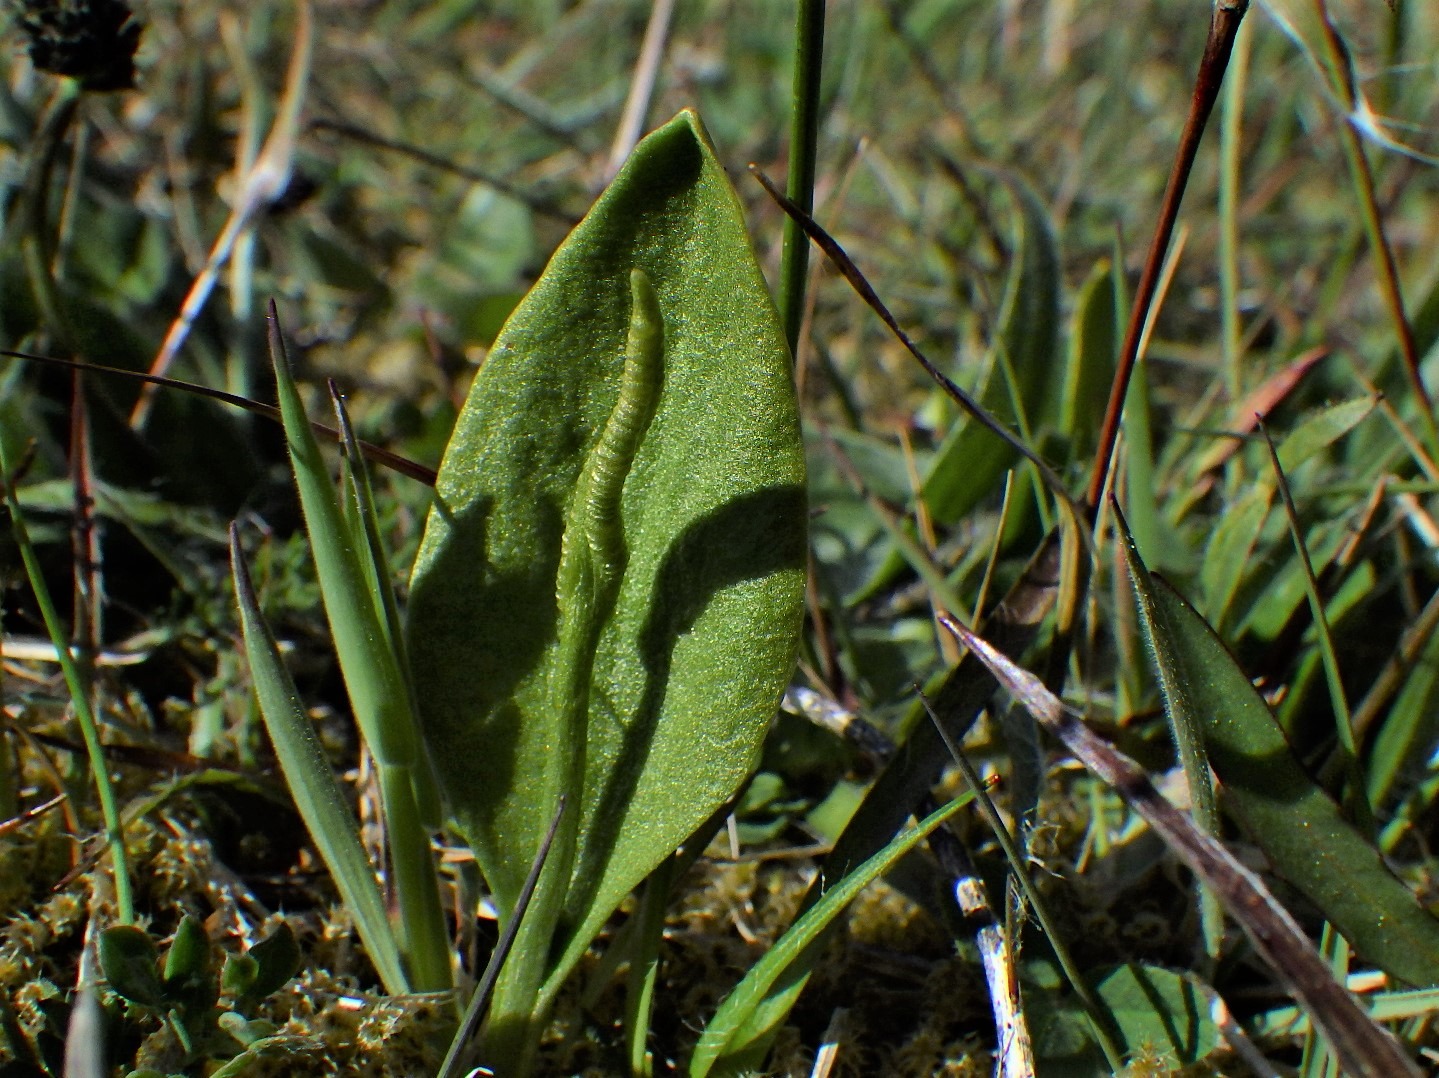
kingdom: Plantae
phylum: Tracheophyta
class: Polypodiopsida
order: Ophioglossales
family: Ophioglossaceae
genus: Ophioglossum
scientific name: Ophioglossum vulgatum
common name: Slangetunge
